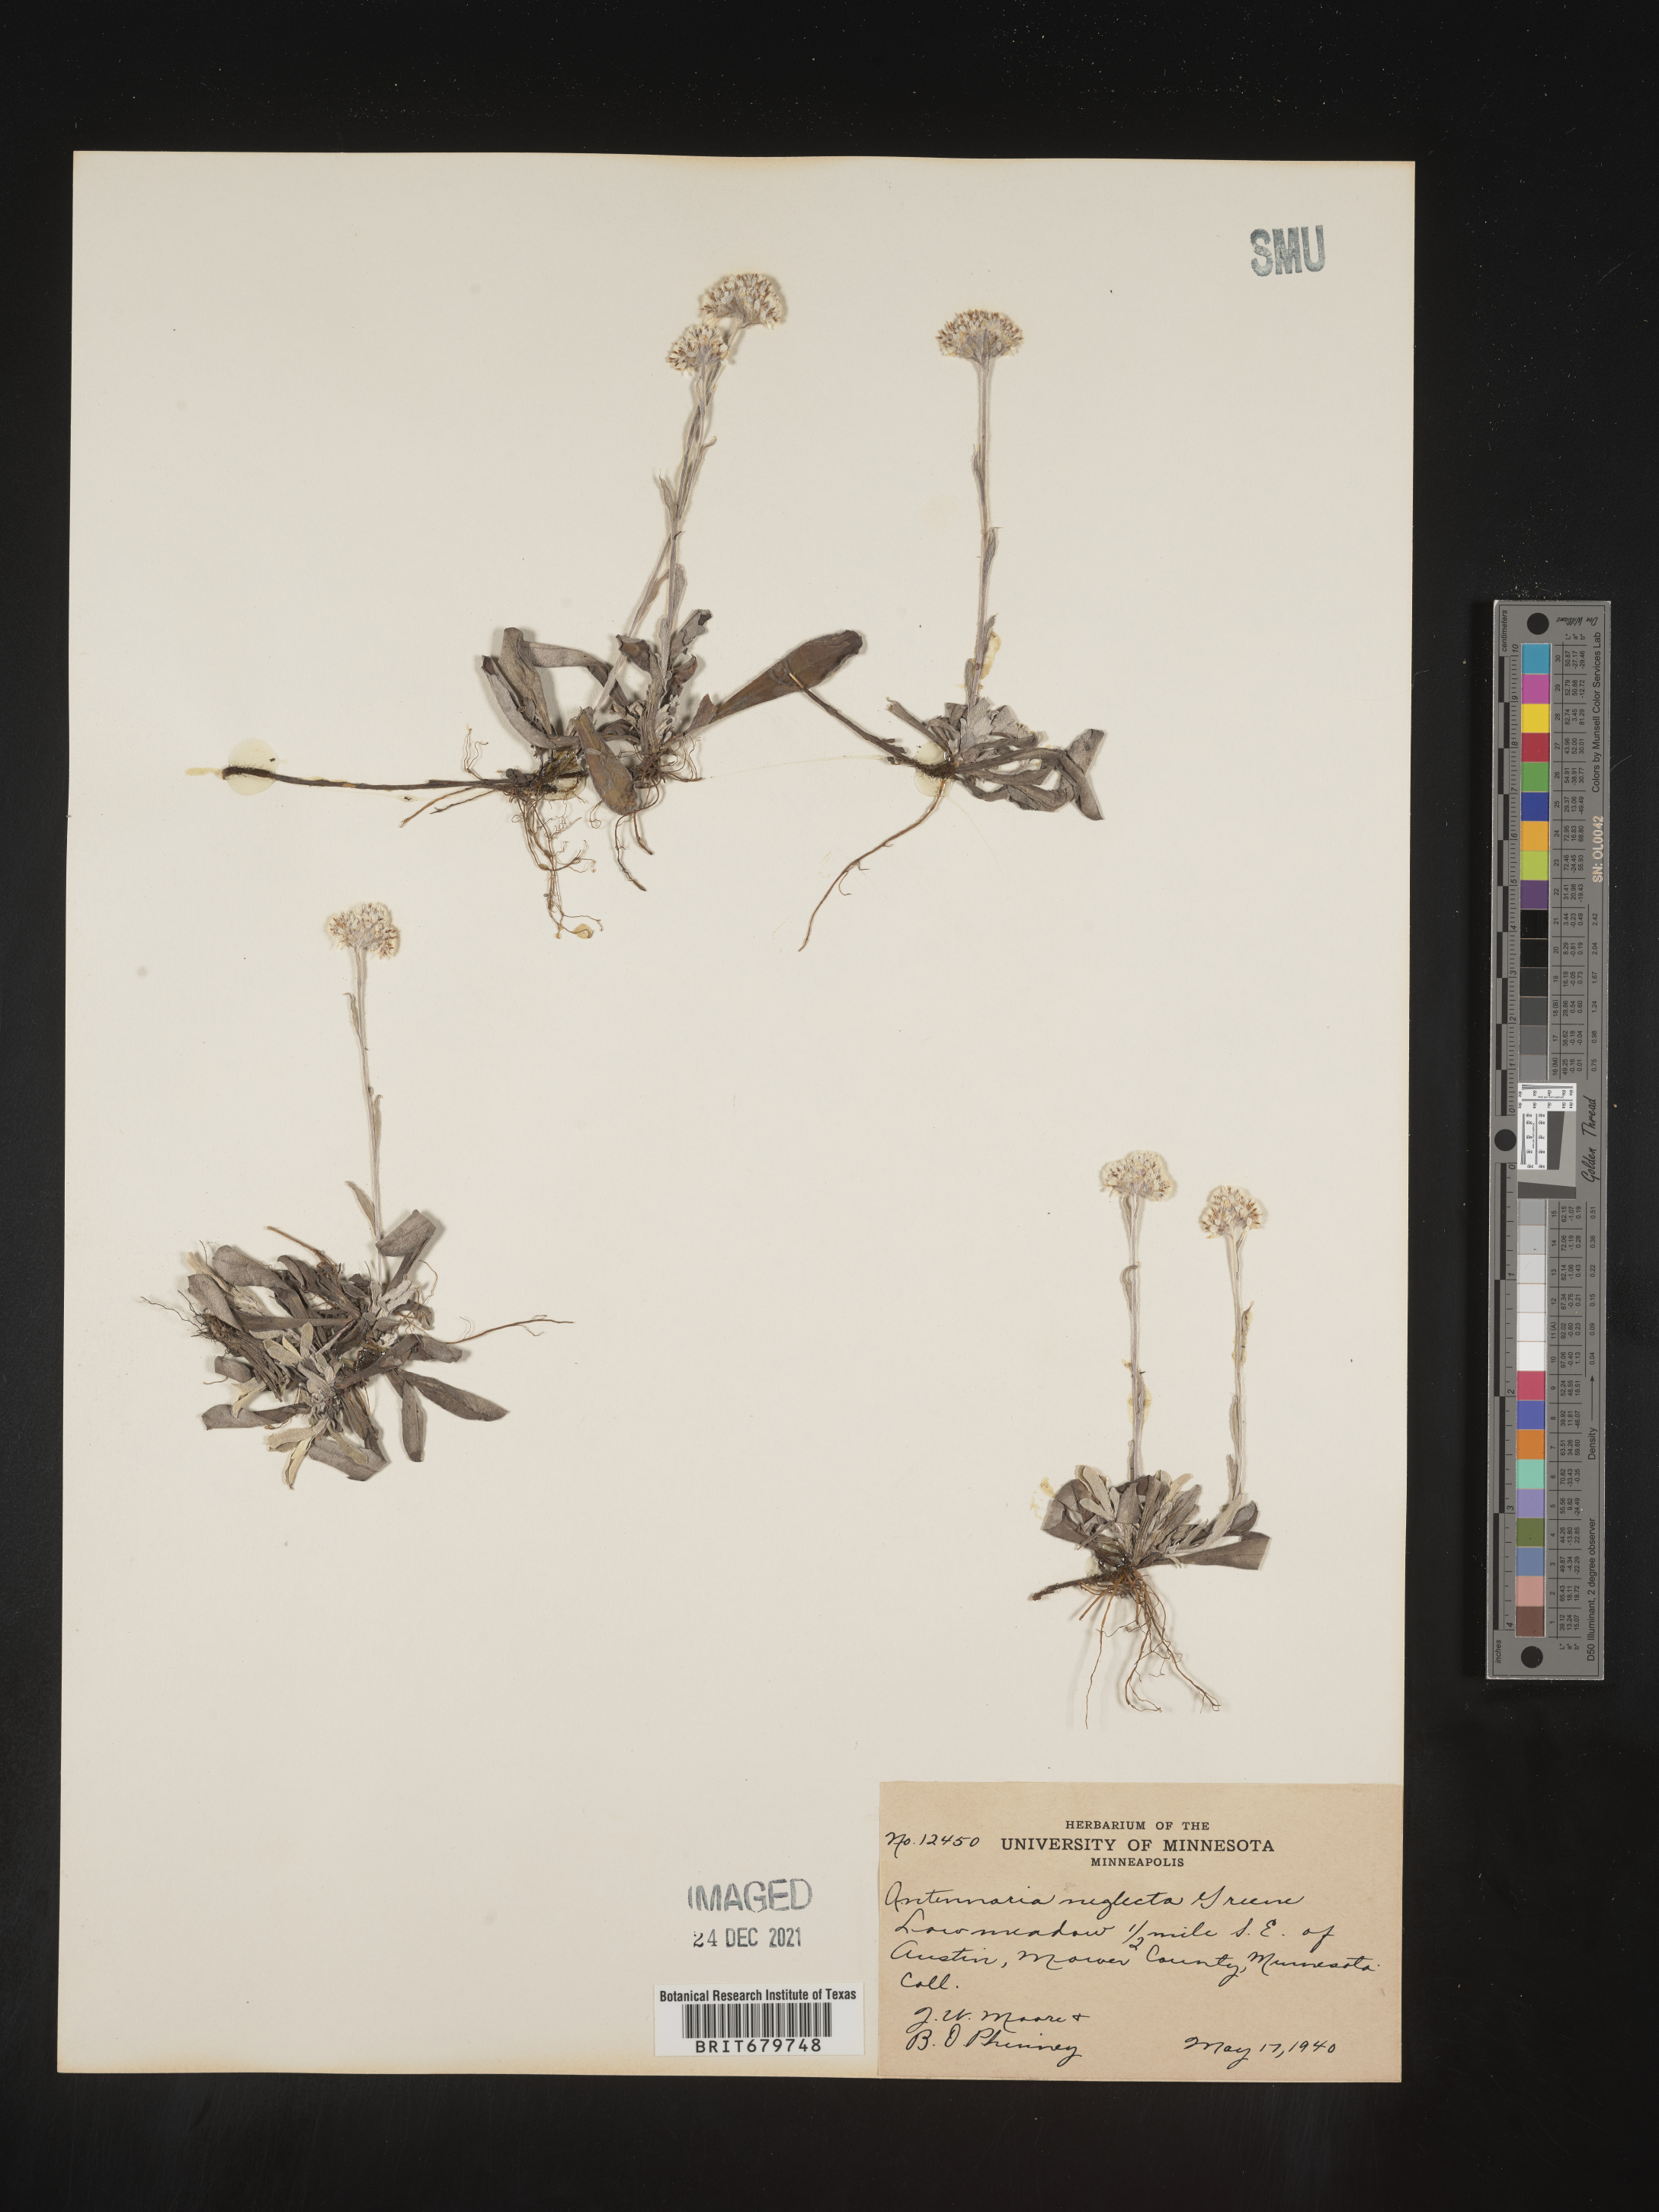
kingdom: Plantae
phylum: Tracheophyta
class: Magnoliopsida
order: Asterales
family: Asteraceae
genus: Antennaria
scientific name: Antennaria neglecta
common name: Field pussytoes
